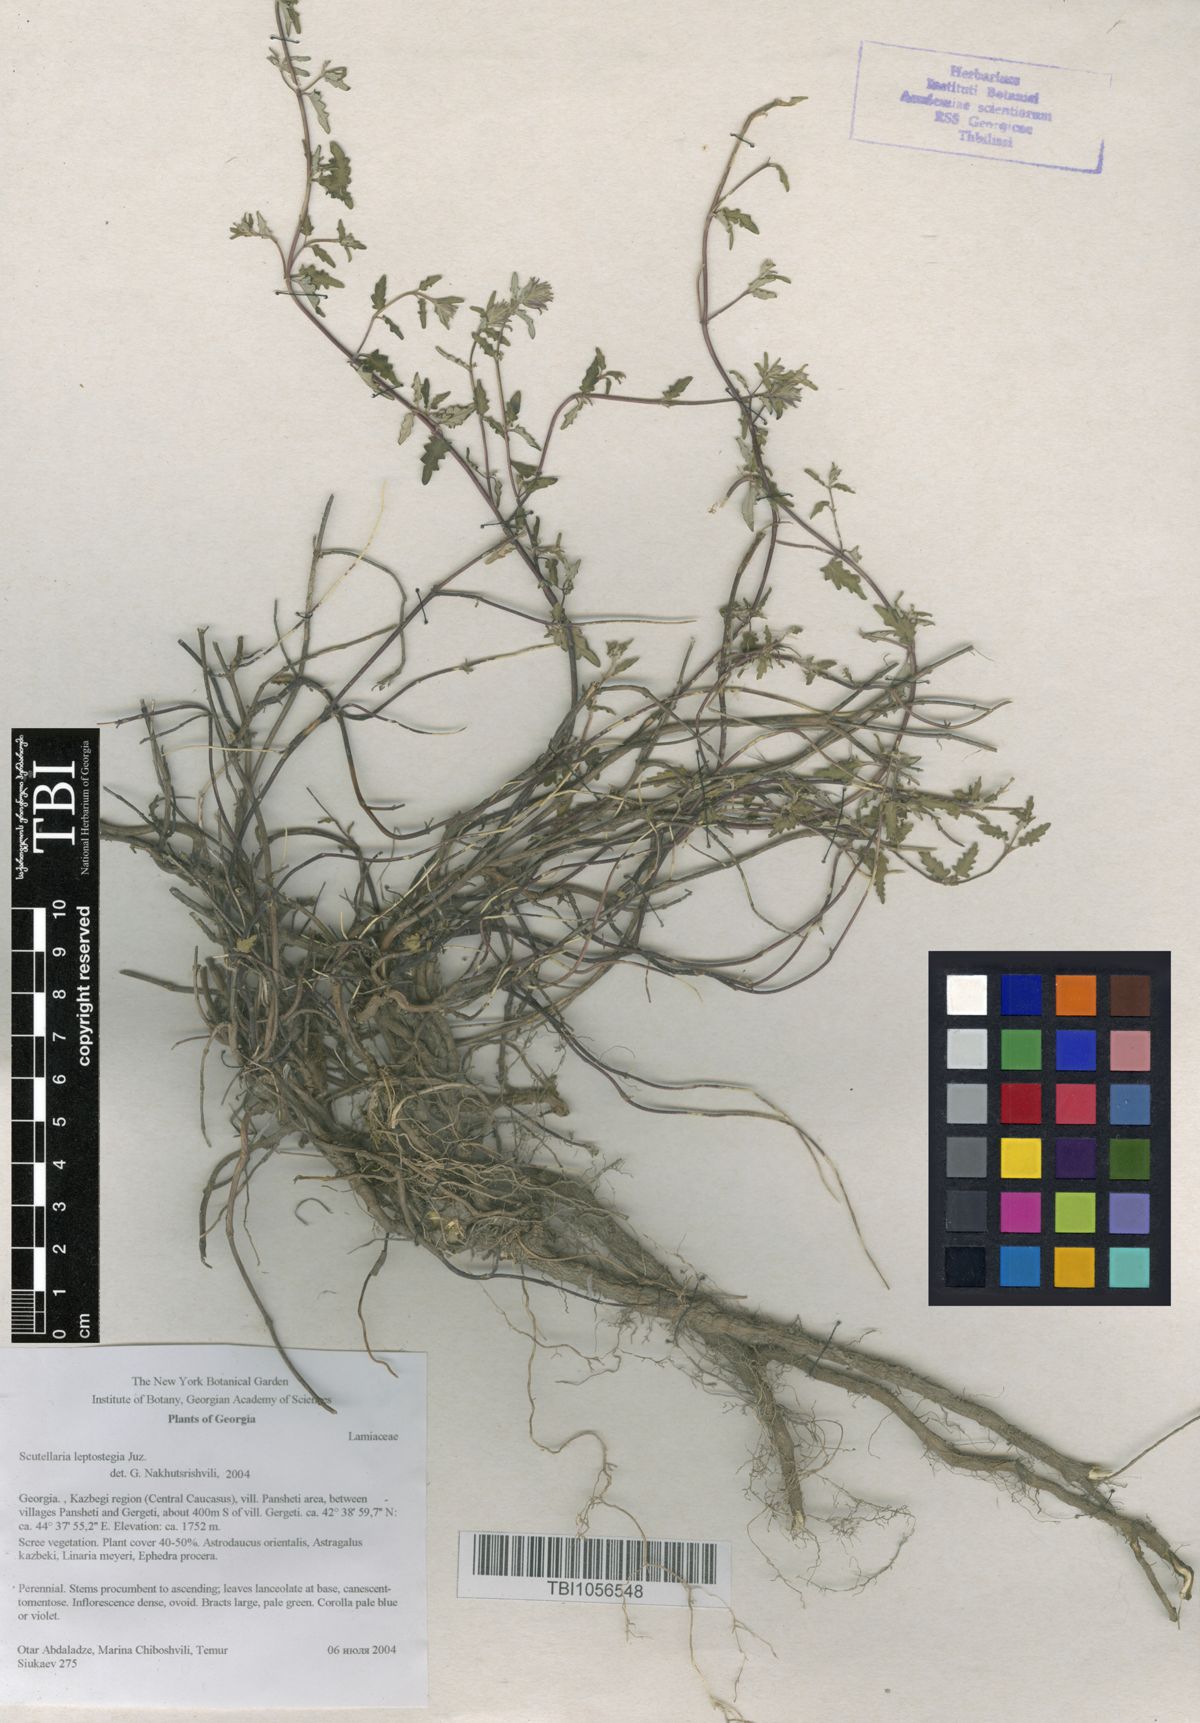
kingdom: Plantae
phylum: Tracheophyta
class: Magnoliopsida
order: Lamiales
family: Lamiaceae
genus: Scutellaria
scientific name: Scutellaria leptostegia
